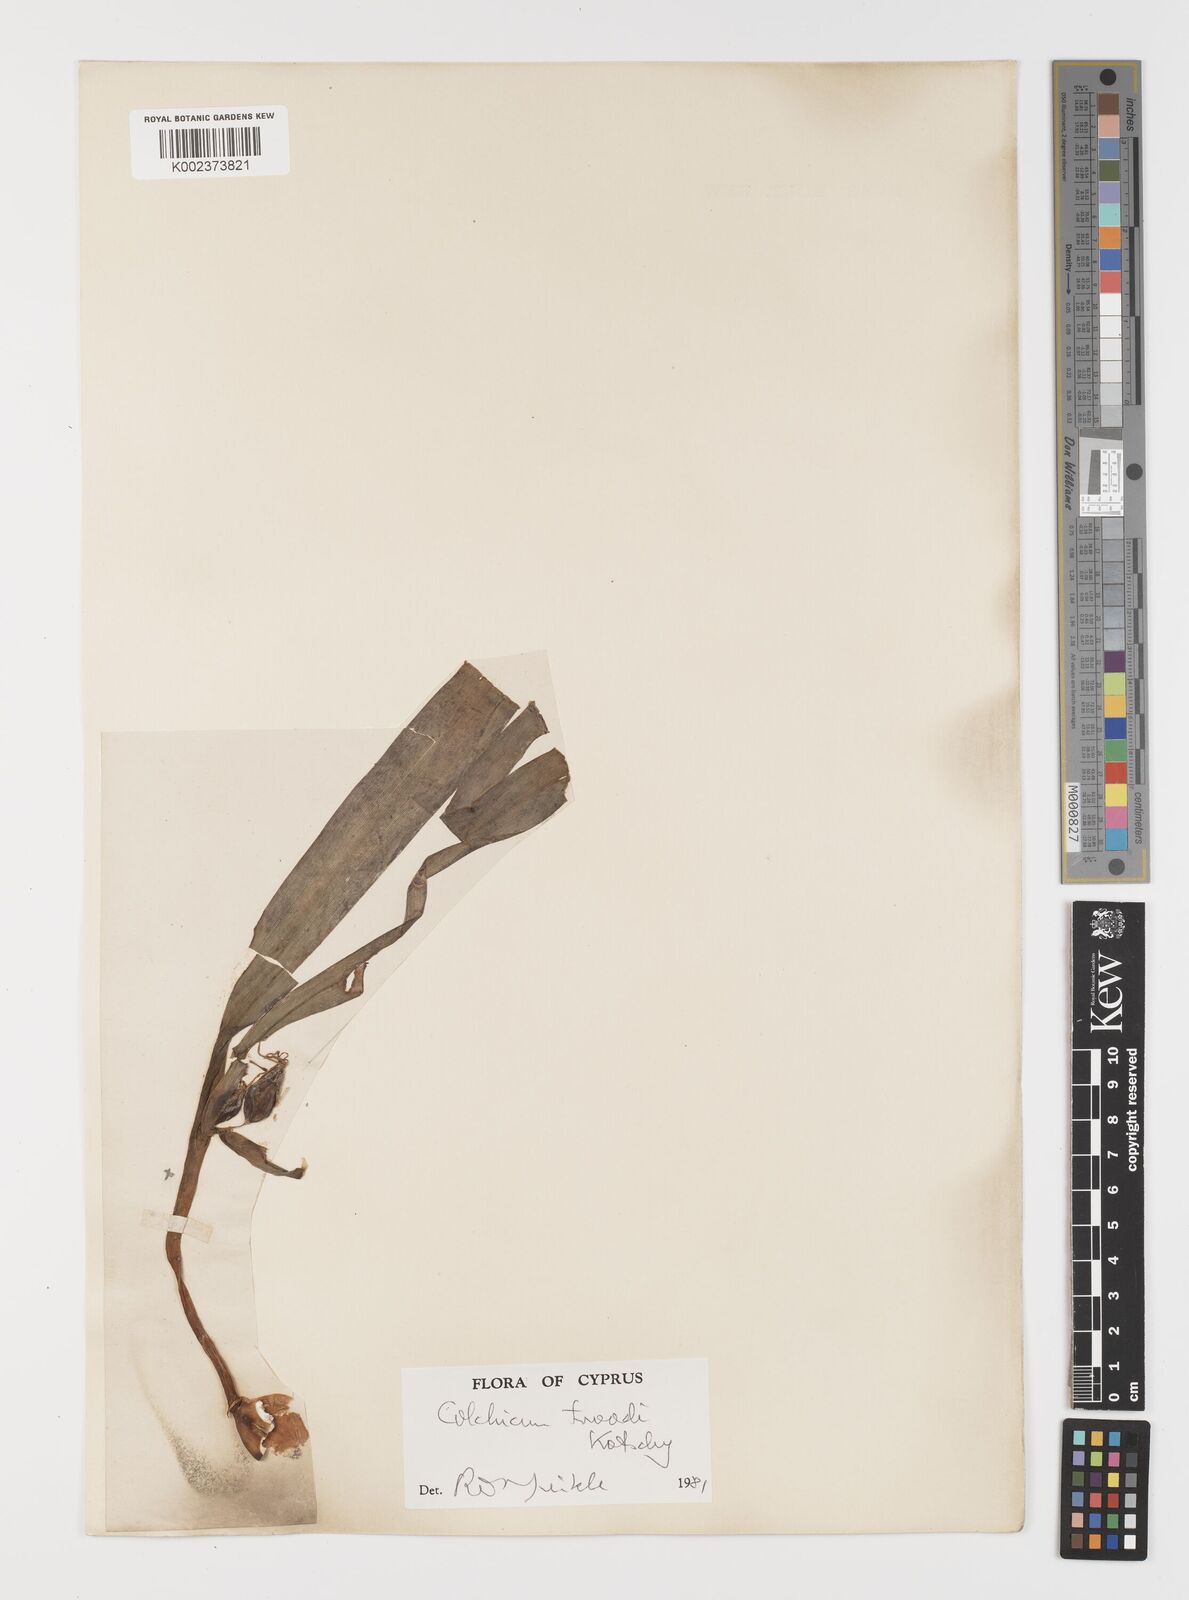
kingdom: Plantae
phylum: Tracheophyta
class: Liliopsida
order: Liliales
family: Colchicaceae
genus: Colchicum
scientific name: Colchicum troodi
